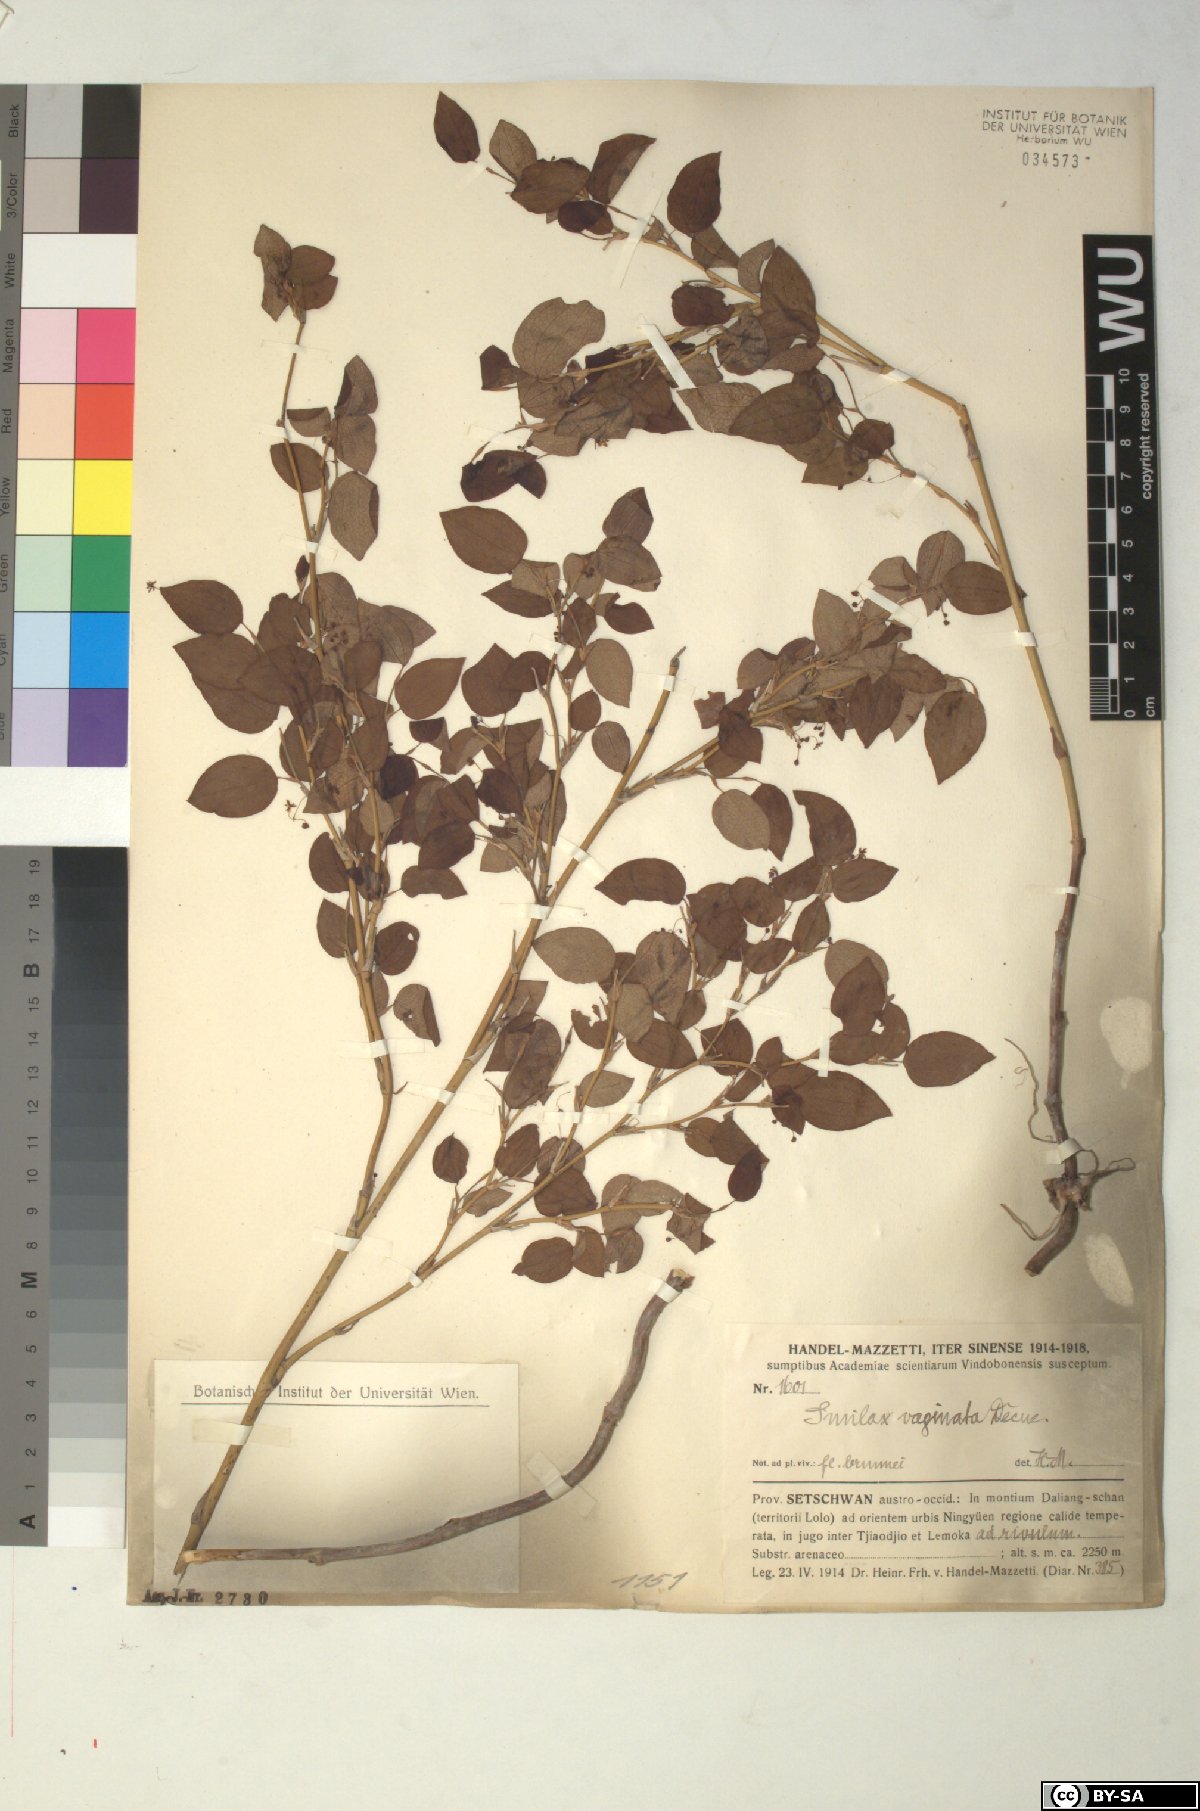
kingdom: Plantae
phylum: Tracheophyta
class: Liliopsida
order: Liliales
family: Smilacaceae
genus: Smilax
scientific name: Smilax stans
